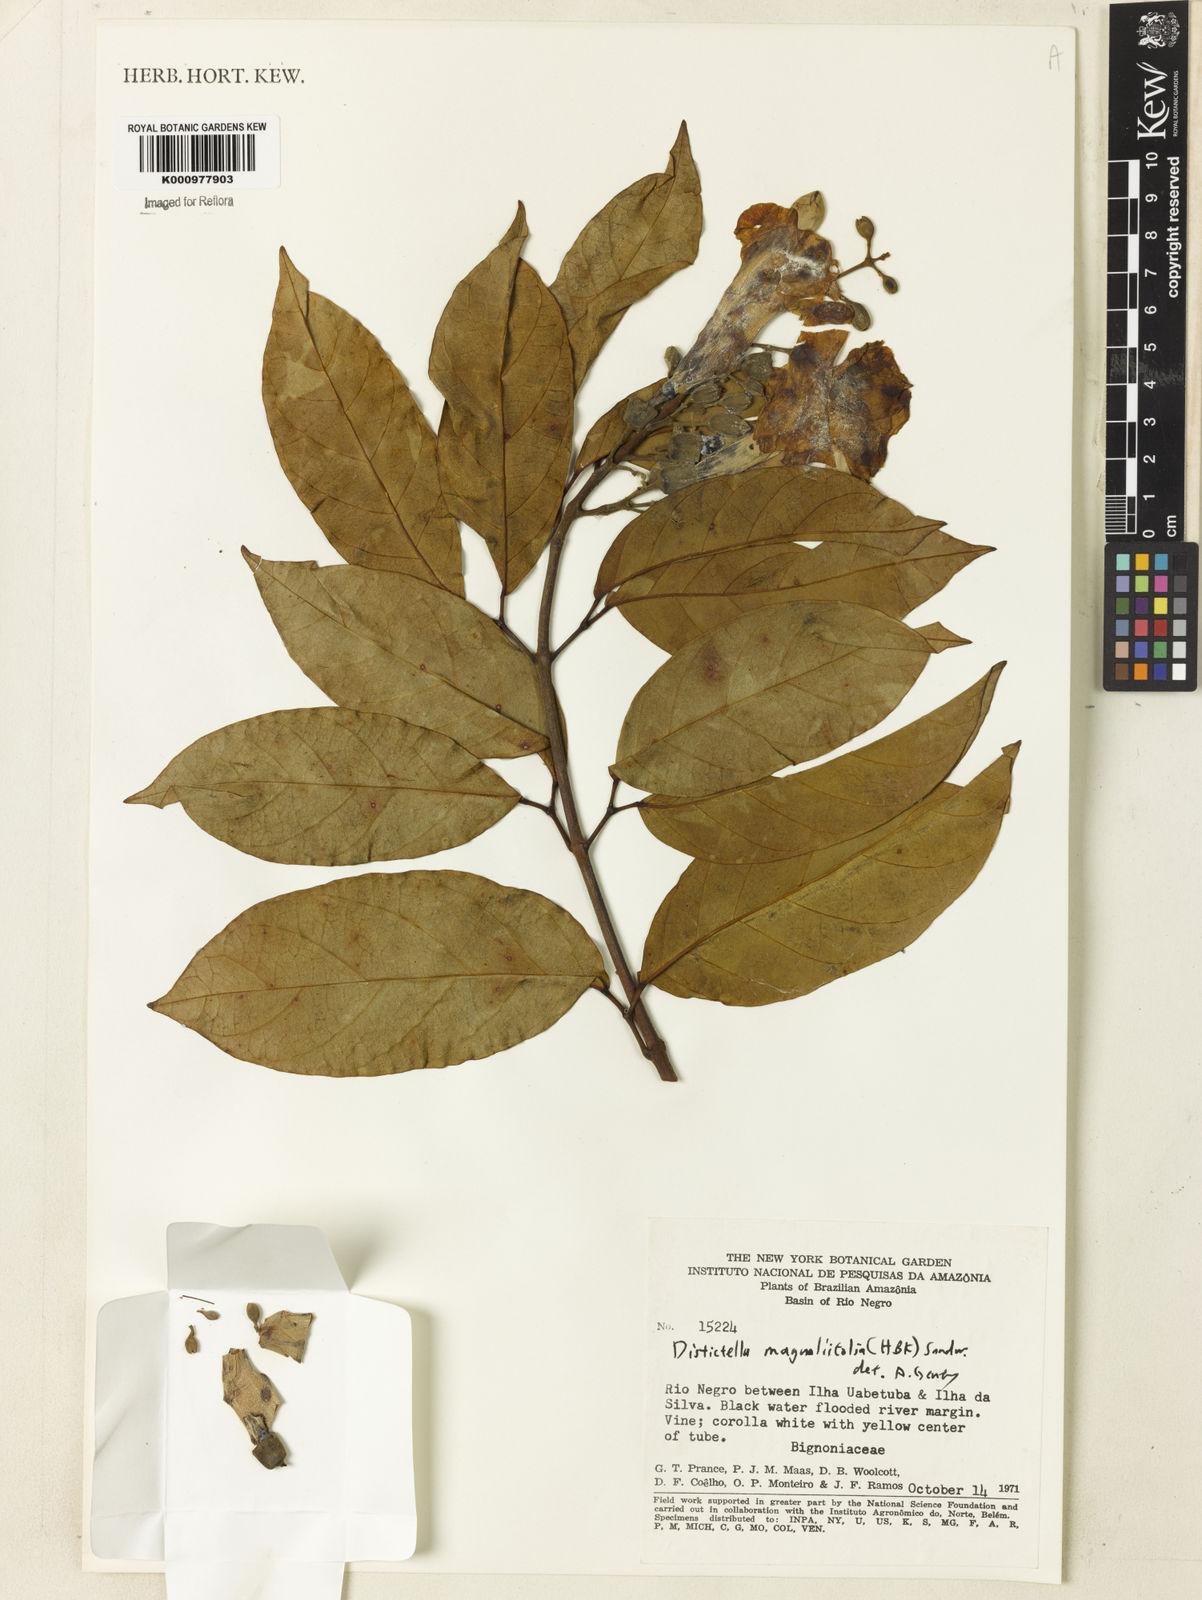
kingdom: Plantae
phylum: Tracheophyta
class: Magnoliopsida
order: Lamiales
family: Bignoniaceae
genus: Amphilophium
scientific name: Amphilophium
